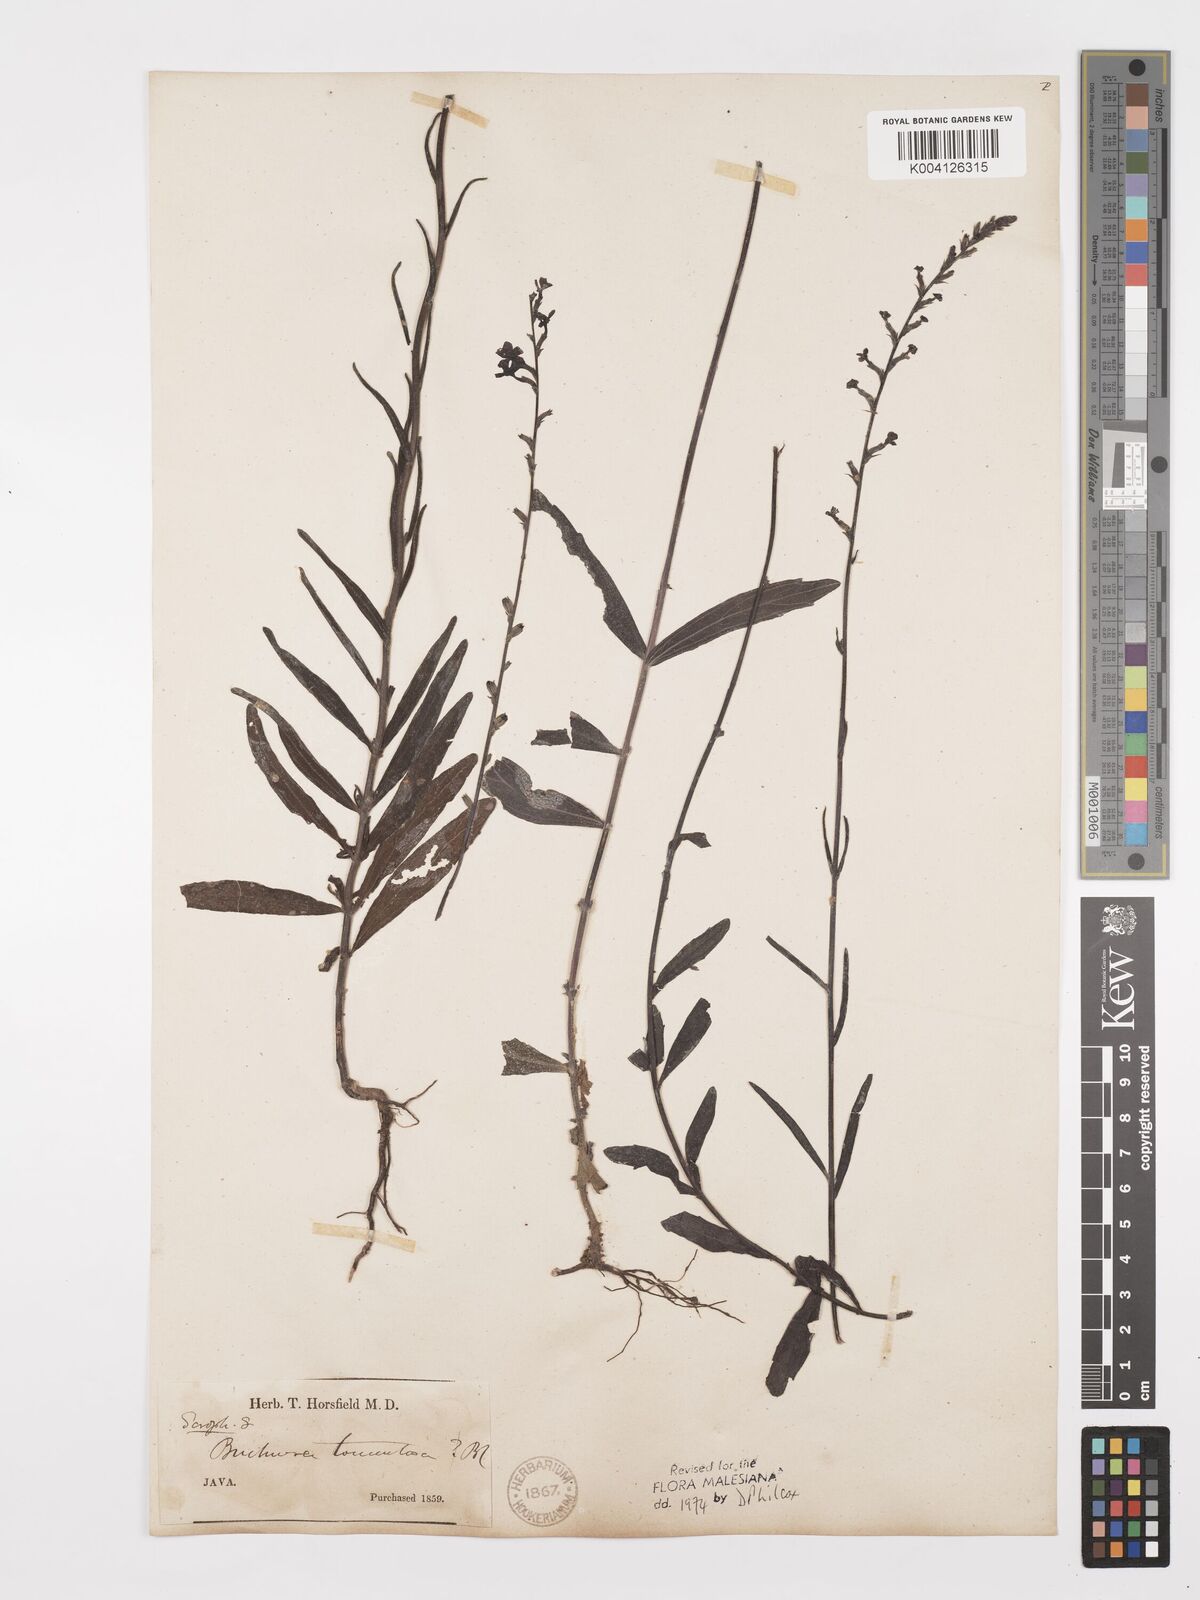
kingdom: Plantae
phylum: Tracheophyta
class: Magnoliopsida
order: Lamiales
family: Orobanchaceae
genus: Buchnera
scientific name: Buchnera tomentosa
